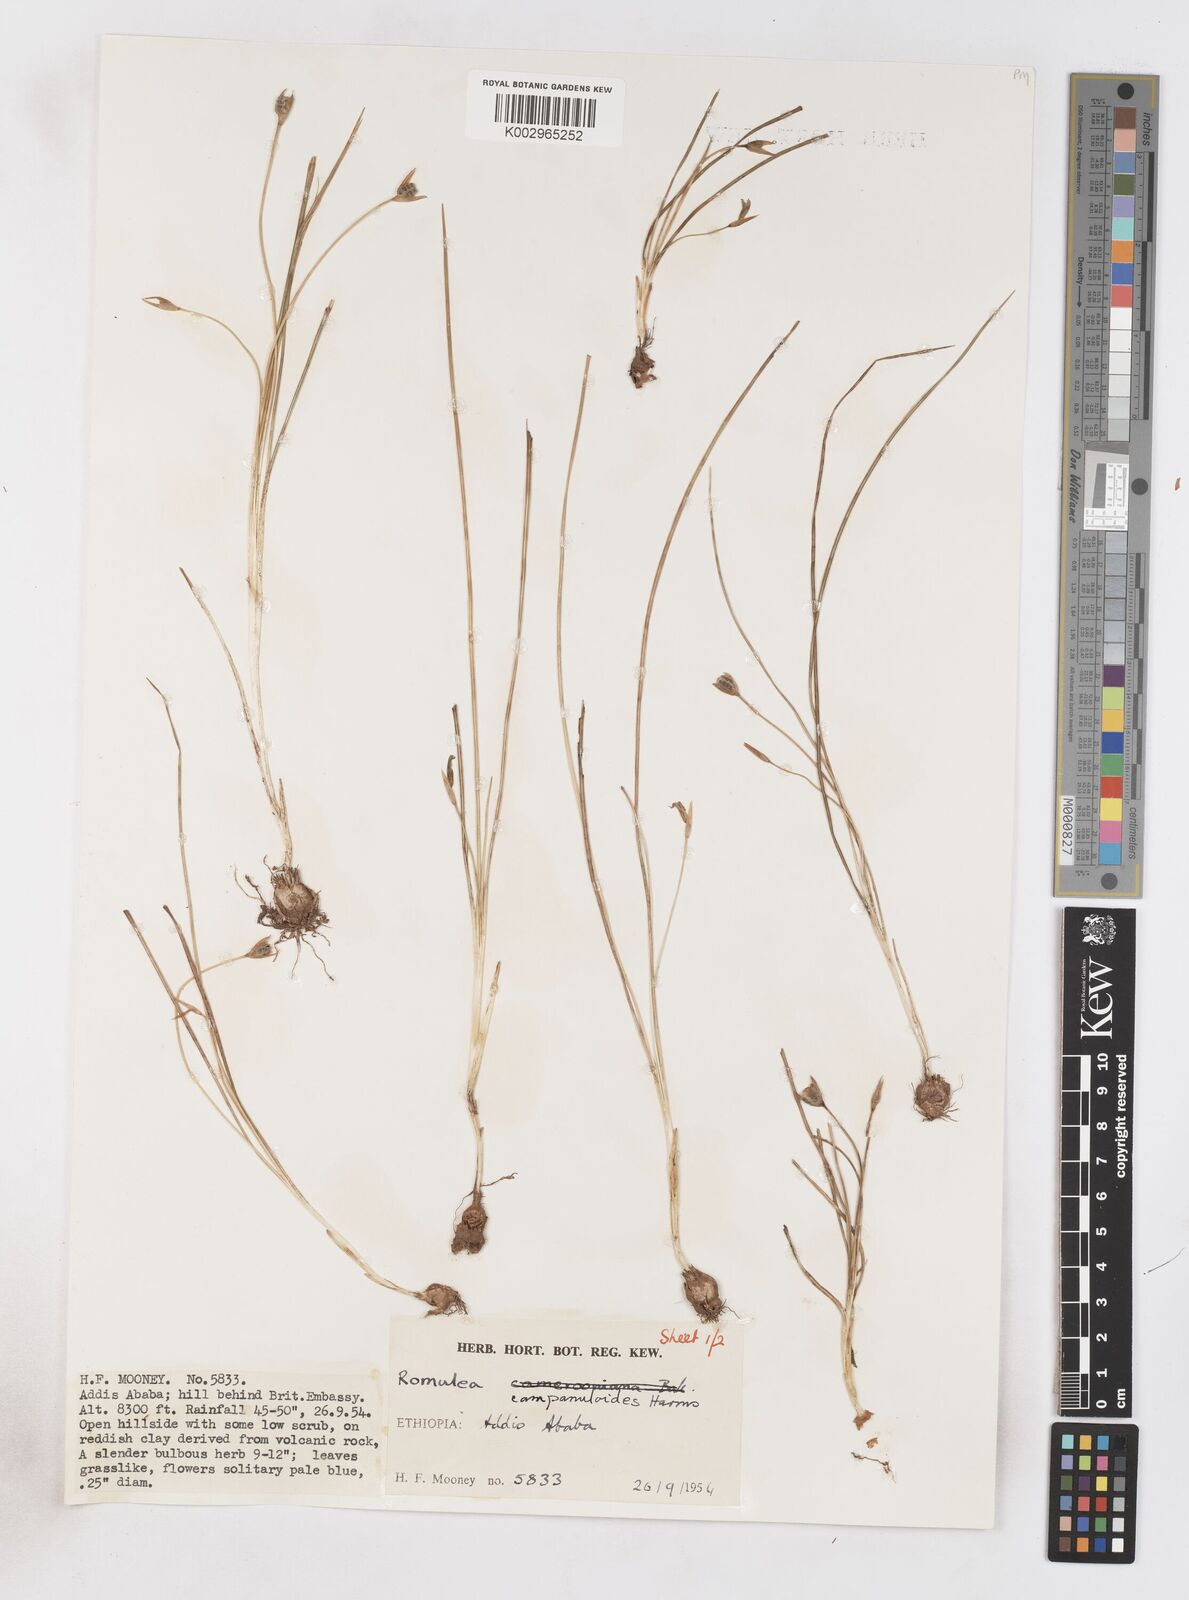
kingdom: Plantae
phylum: Tracheophyta
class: Liliopsida
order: Asparagales
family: Iridaceae
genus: Romulea
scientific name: Romulea fischeri
